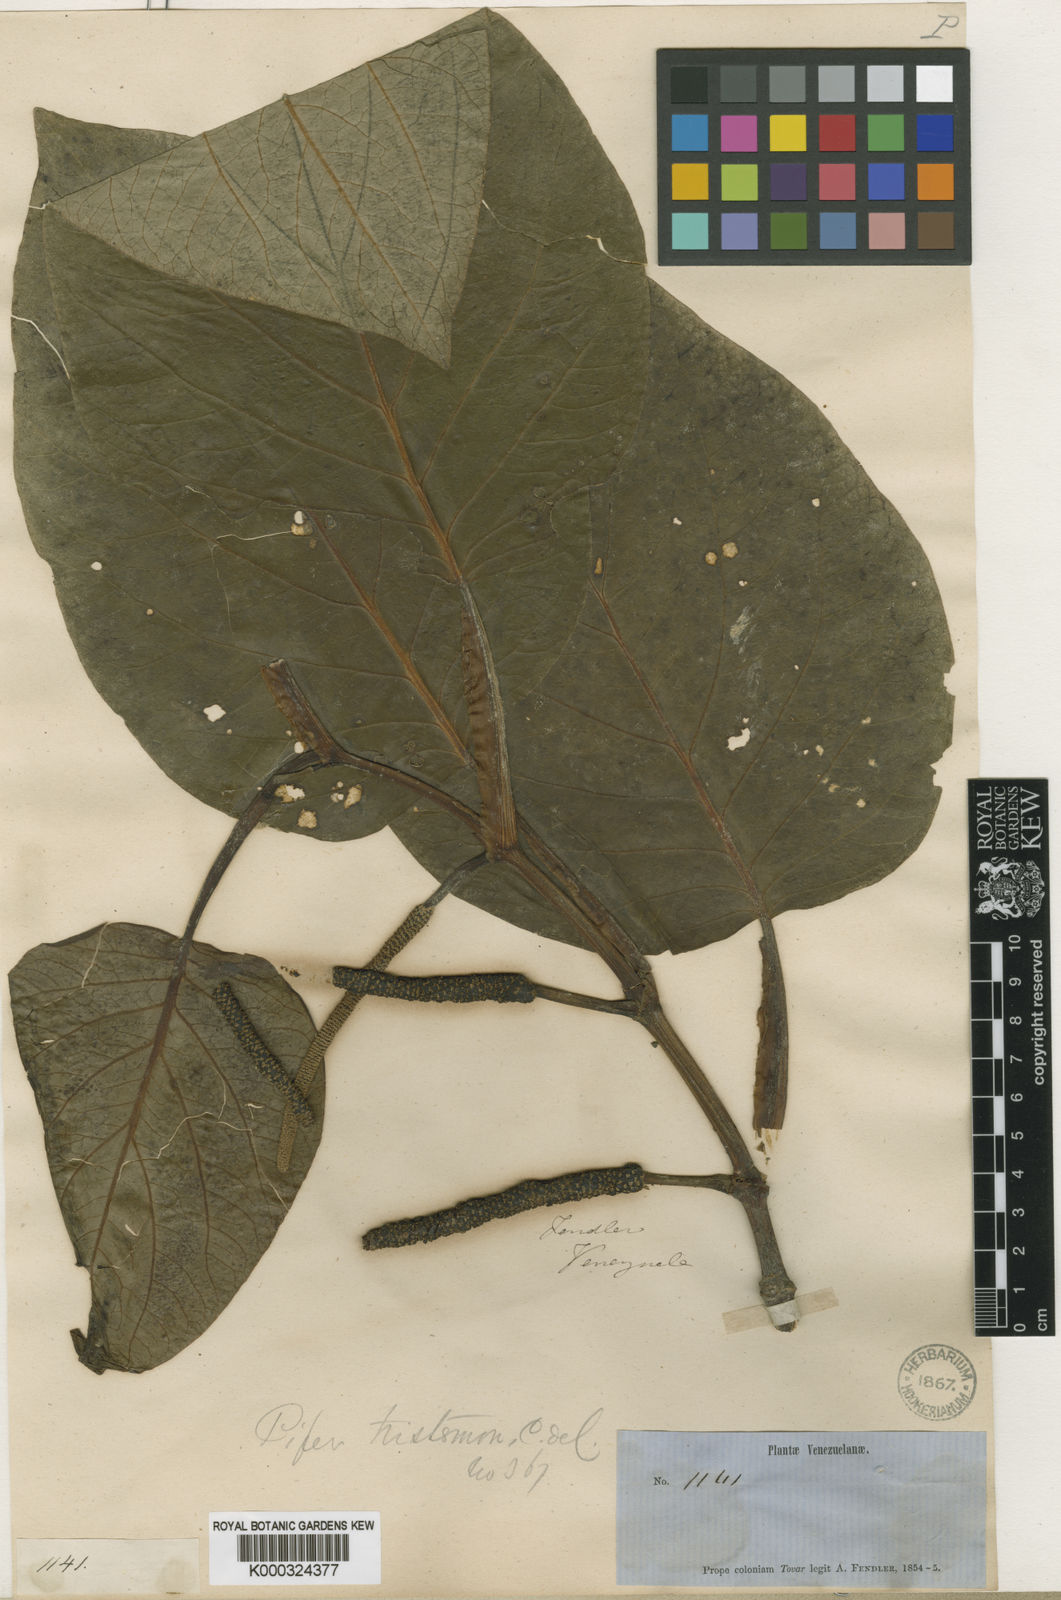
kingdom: Plantae
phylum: Tracheophyta
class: Magnoliopsida
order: Piperales
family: Piperaceae
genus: Piper
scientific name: Piper tristemon
